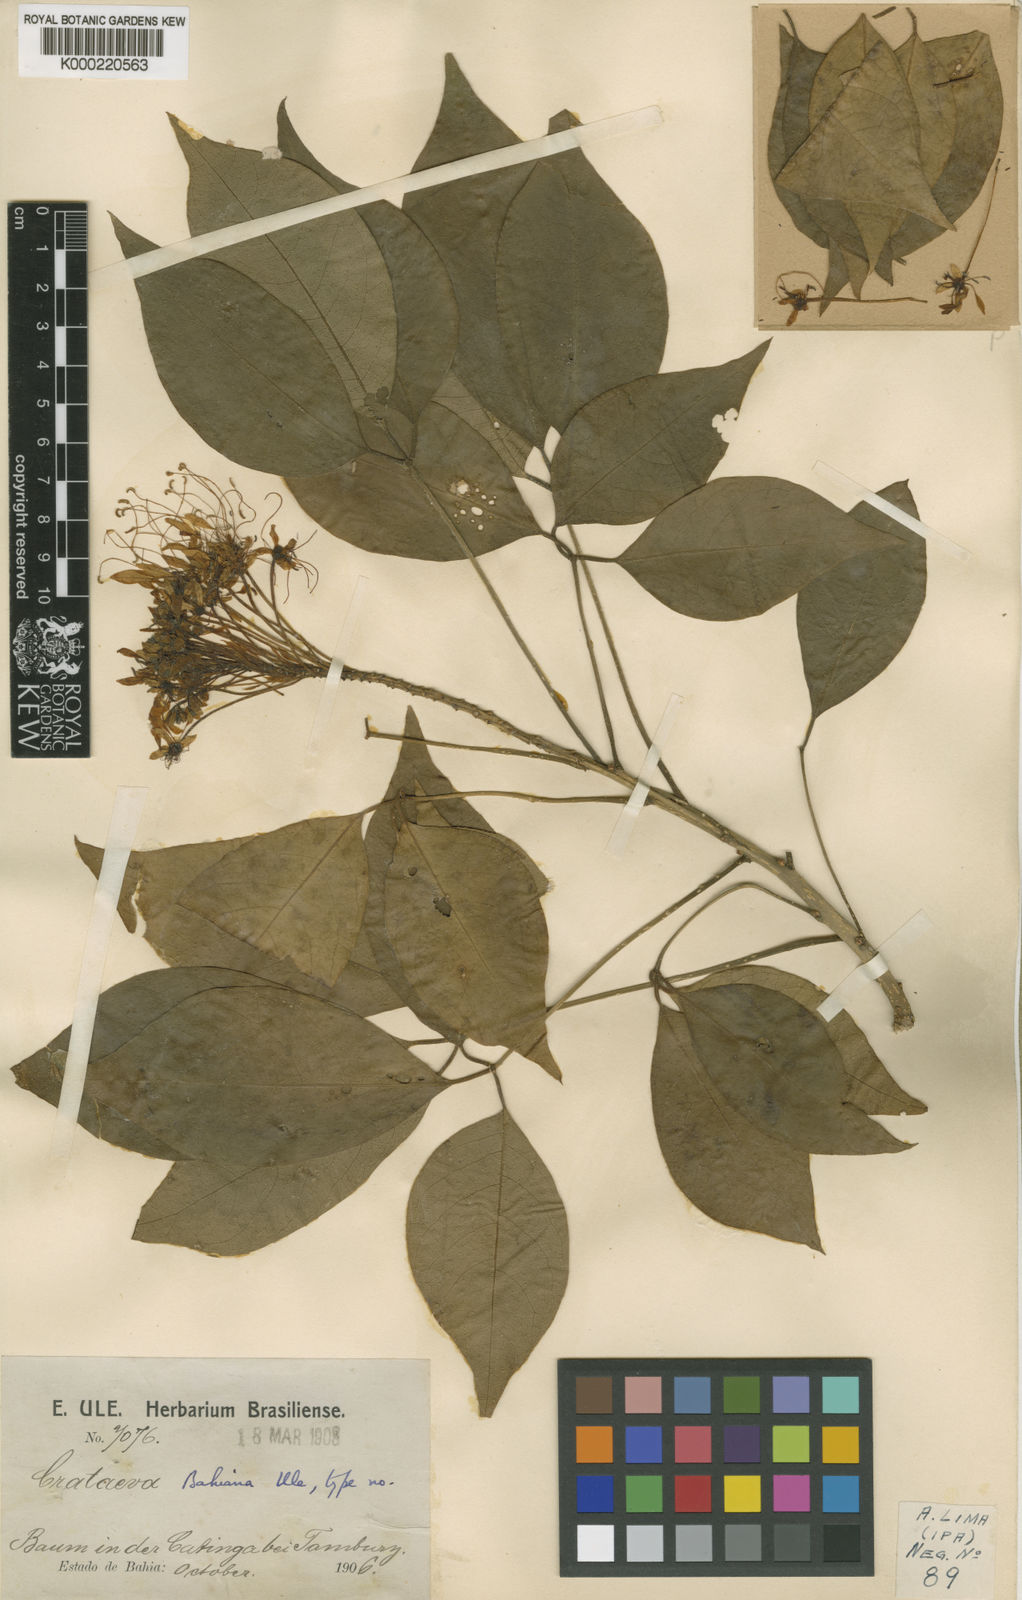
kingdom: Plantae
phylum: Tracheophyta
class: Magnoliopsida
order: Brassicales
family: Capparaceae
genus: Crateva
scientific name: Crateva tapia
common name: Garlic-pear
